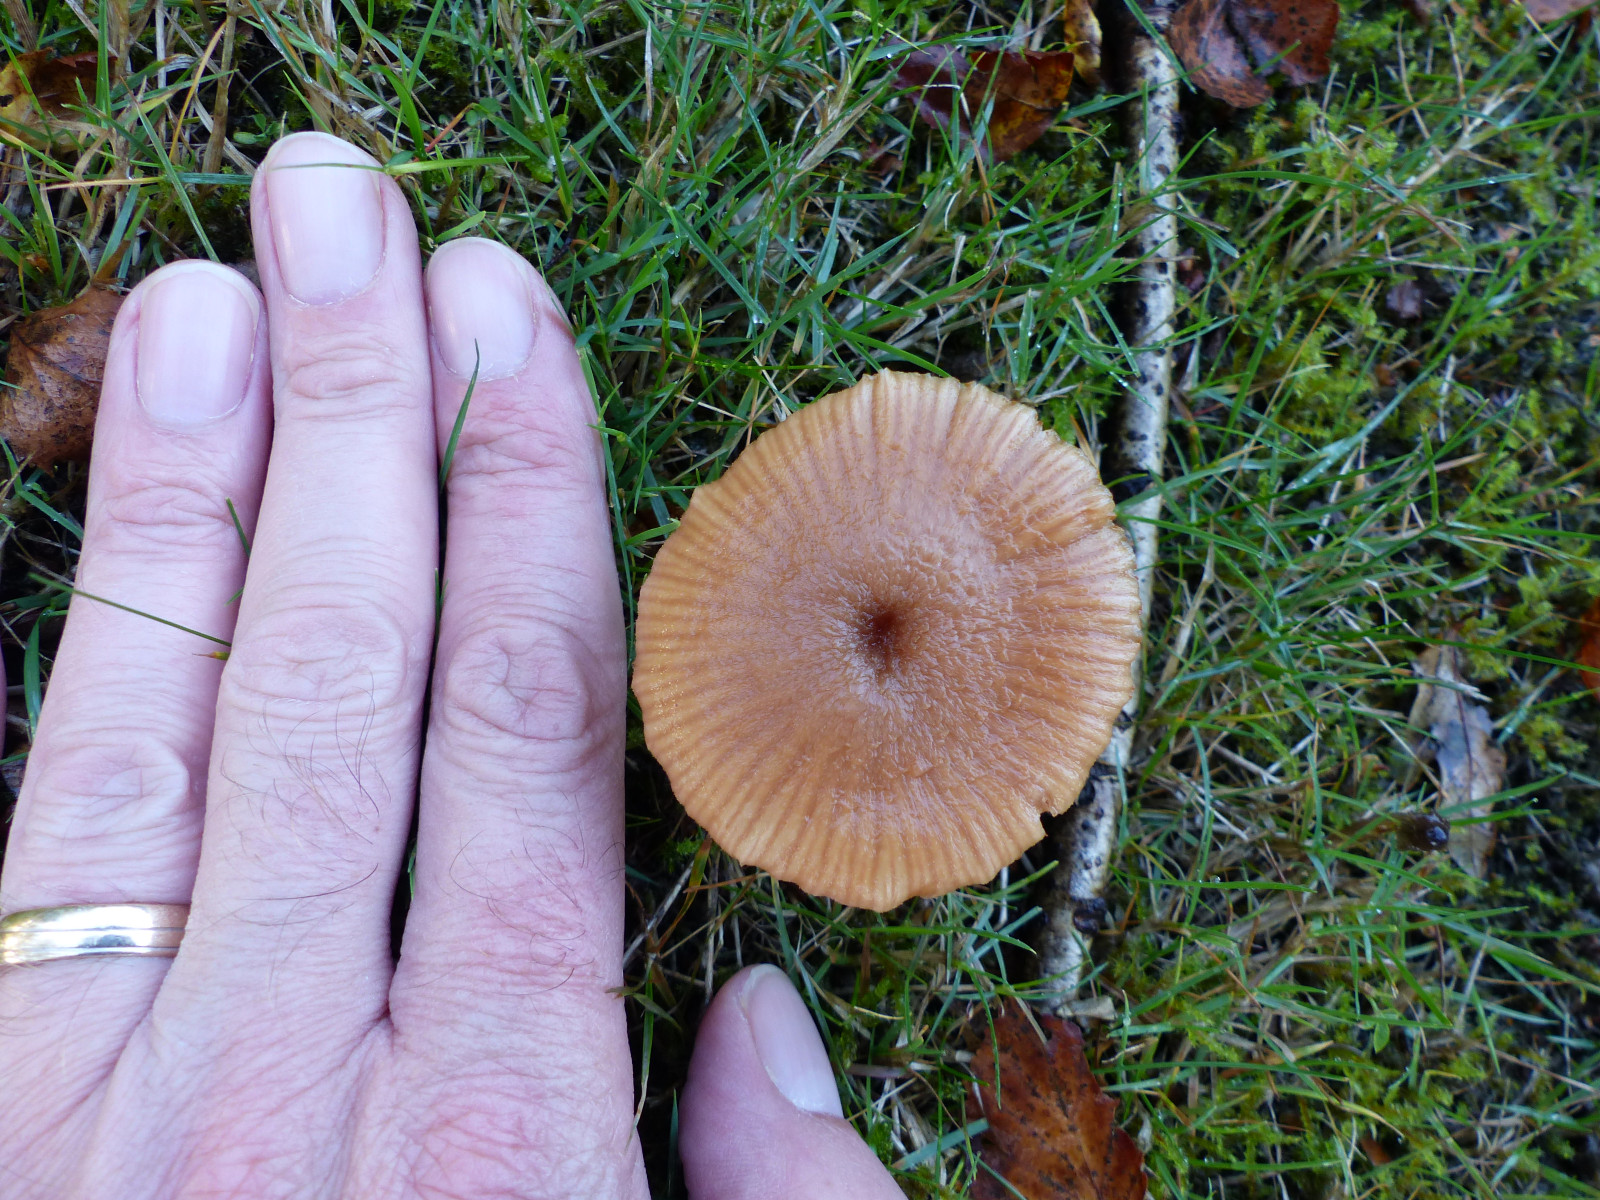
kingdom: Fungi
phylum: Basidiomycota
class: Agaricomycetes
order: Agaricales
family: Hydnangiaceae
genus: Laccaria
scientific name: Laccaria
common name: ametysthat
